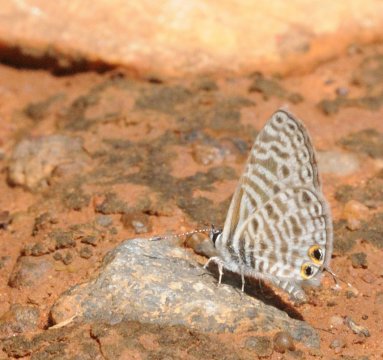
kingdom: Animalia
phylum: Arthropoda
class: Insecta
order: Lepidoptera
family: Lycaenidae
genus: Leptotes
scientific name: Leptotes pirithous
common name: Lang's Short-tailed Blue
